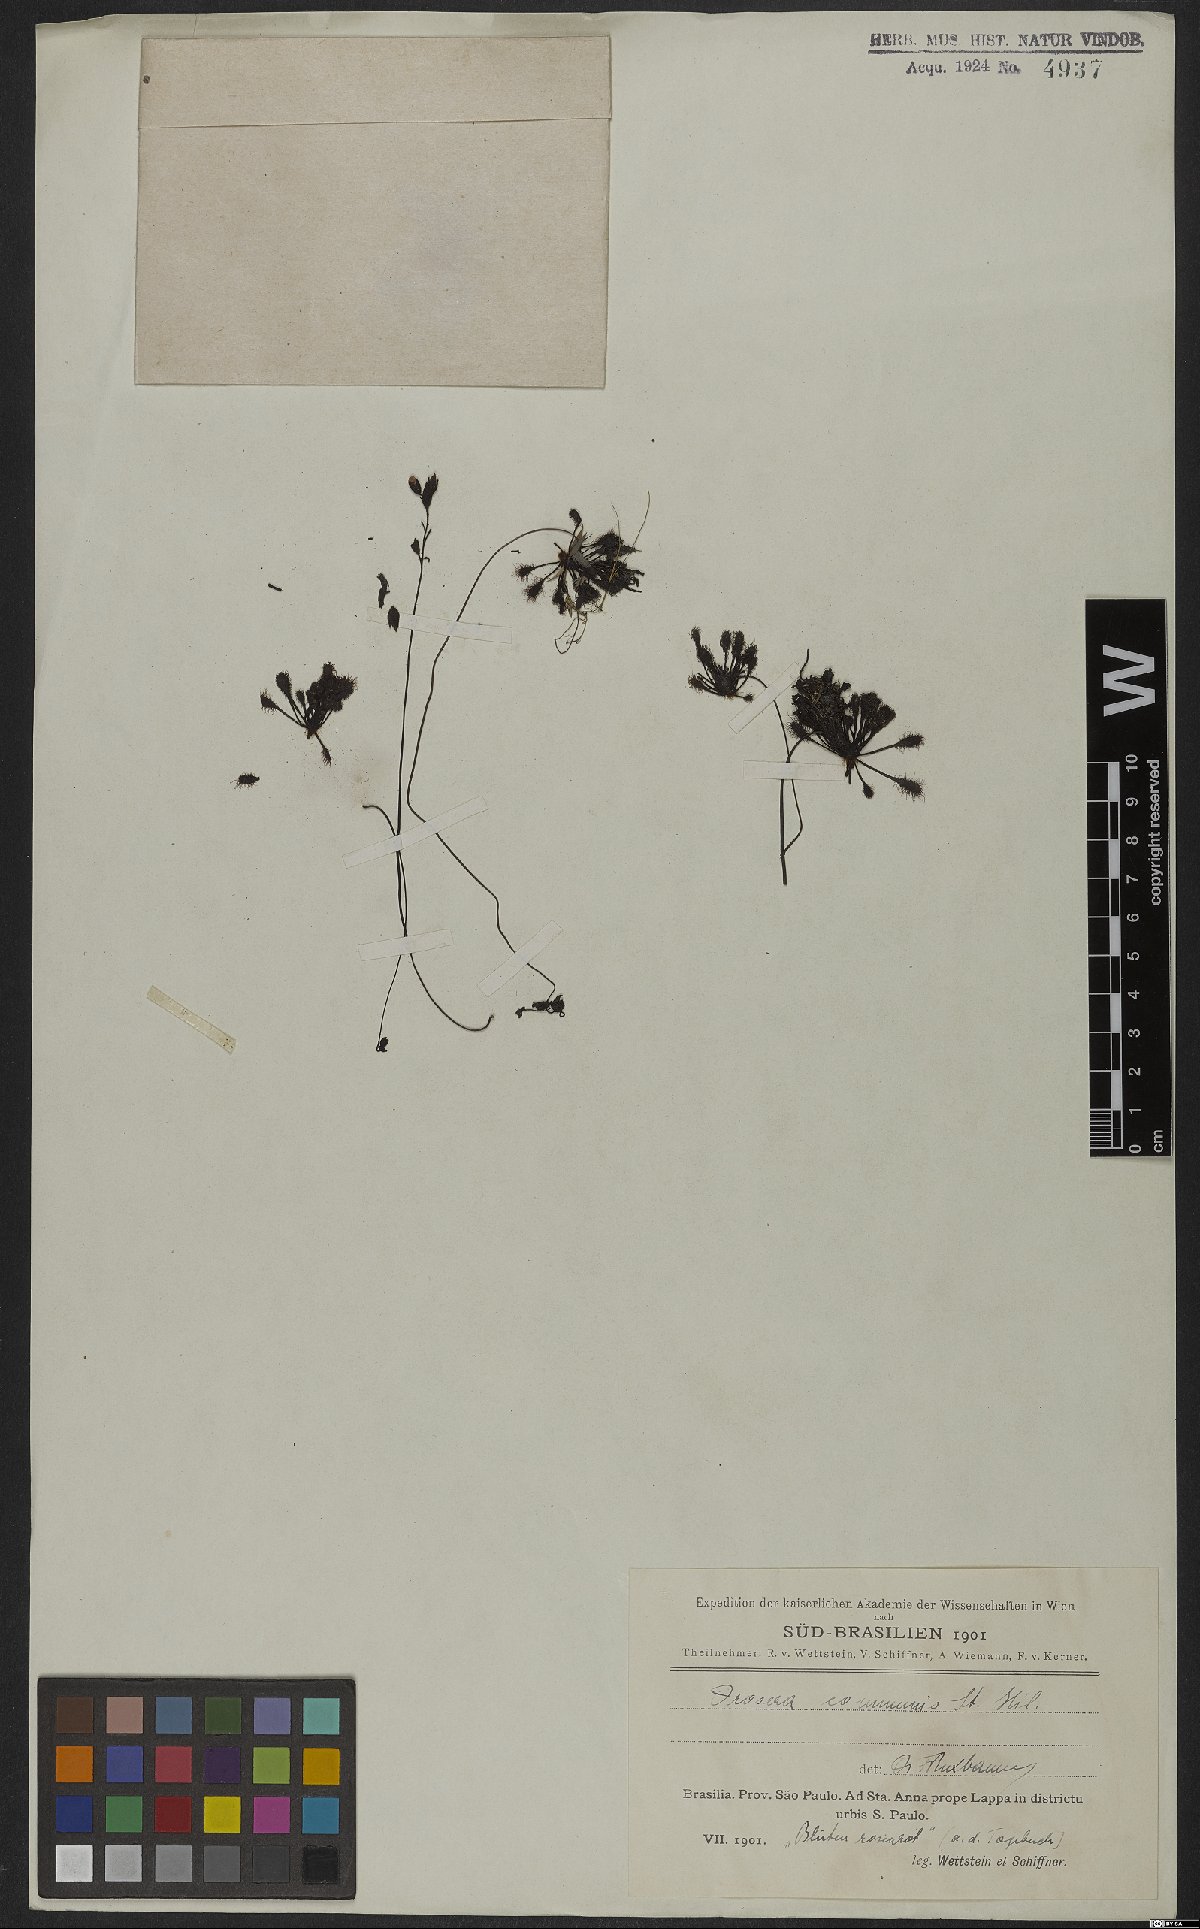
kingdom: Plantae
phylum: Tracheophyta
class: Magnoliopsida
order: Caryophyllales
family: Droseraceae
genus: Drosera
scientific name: Drosera communis
